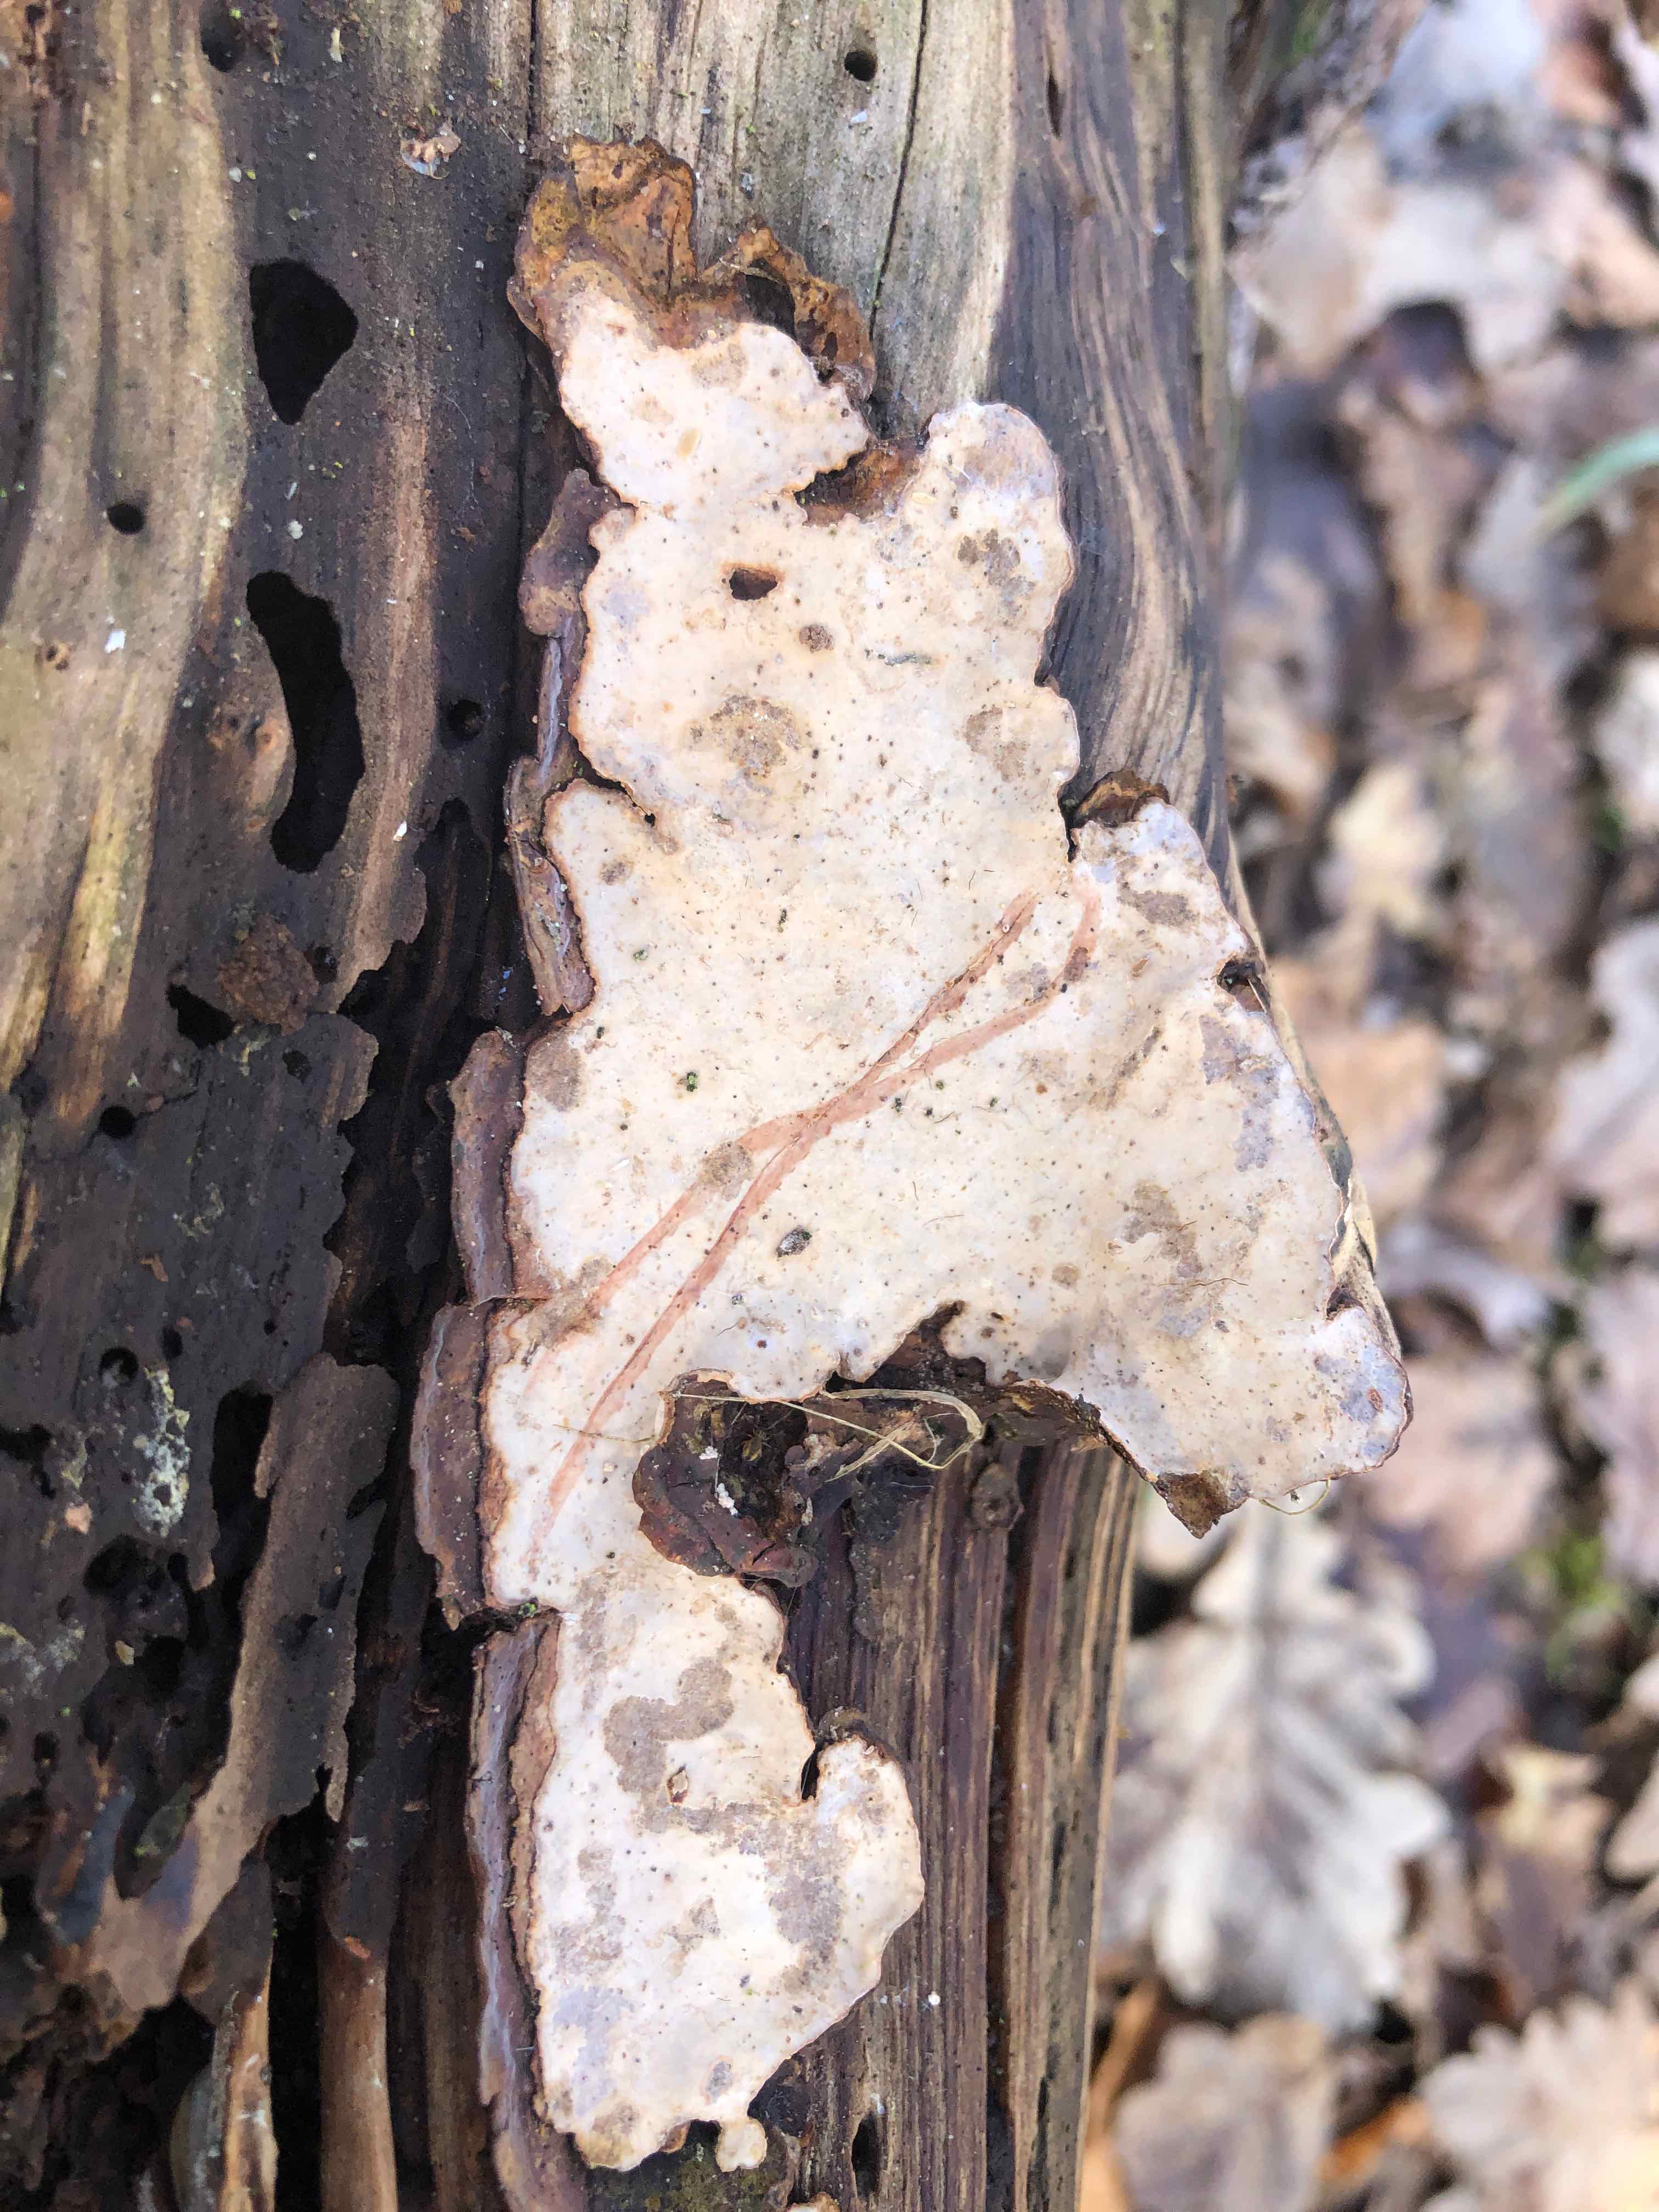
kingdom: Fungi
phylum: Basidiomycota
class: Agaricomycetes
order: Russulales
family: Stereaceae
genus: Stereum
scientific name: Stereum rugosum
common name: rynket lædersvamp
